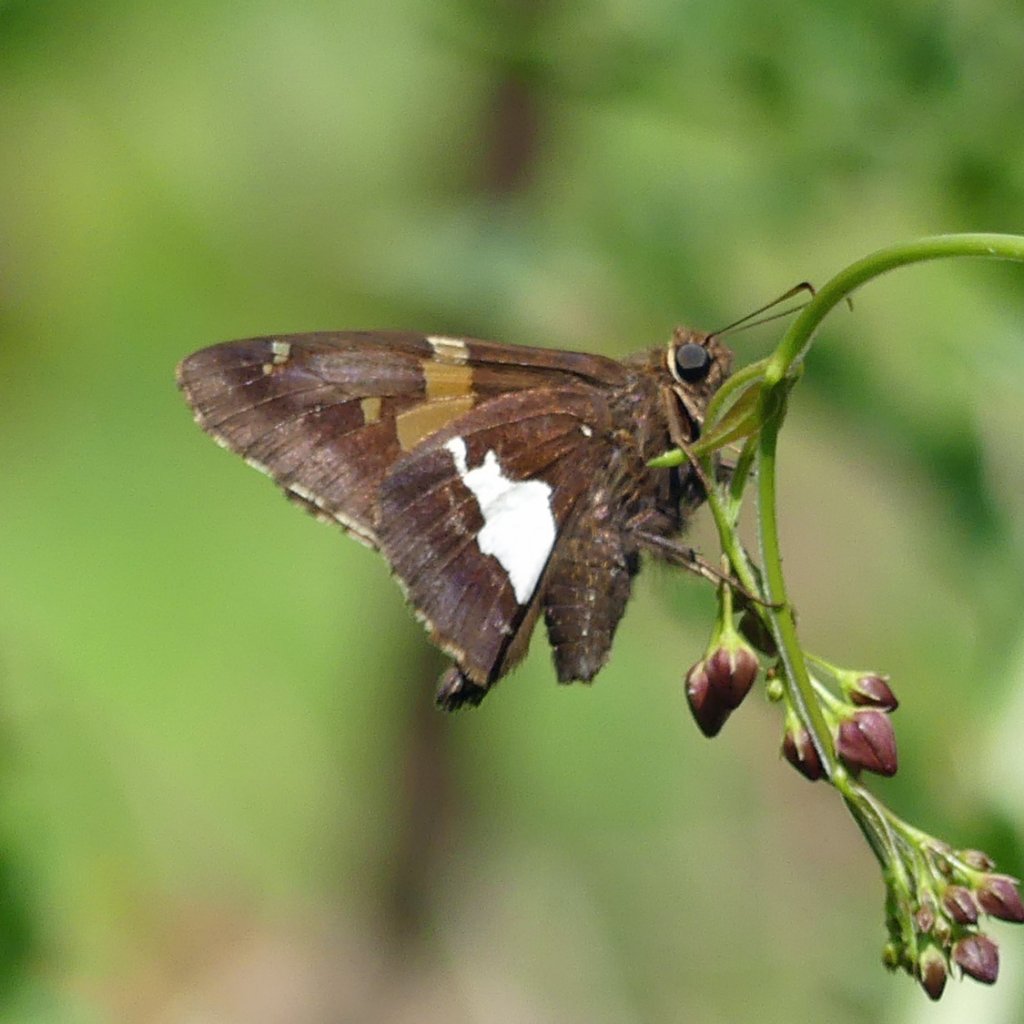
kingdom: Animalia
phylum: Arthropoda
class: Insecta
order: Lepidoptera
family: Hesperiidae
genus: Epargyreus
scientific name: Epargyreus clarus
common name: Silver-spotted Skipper
